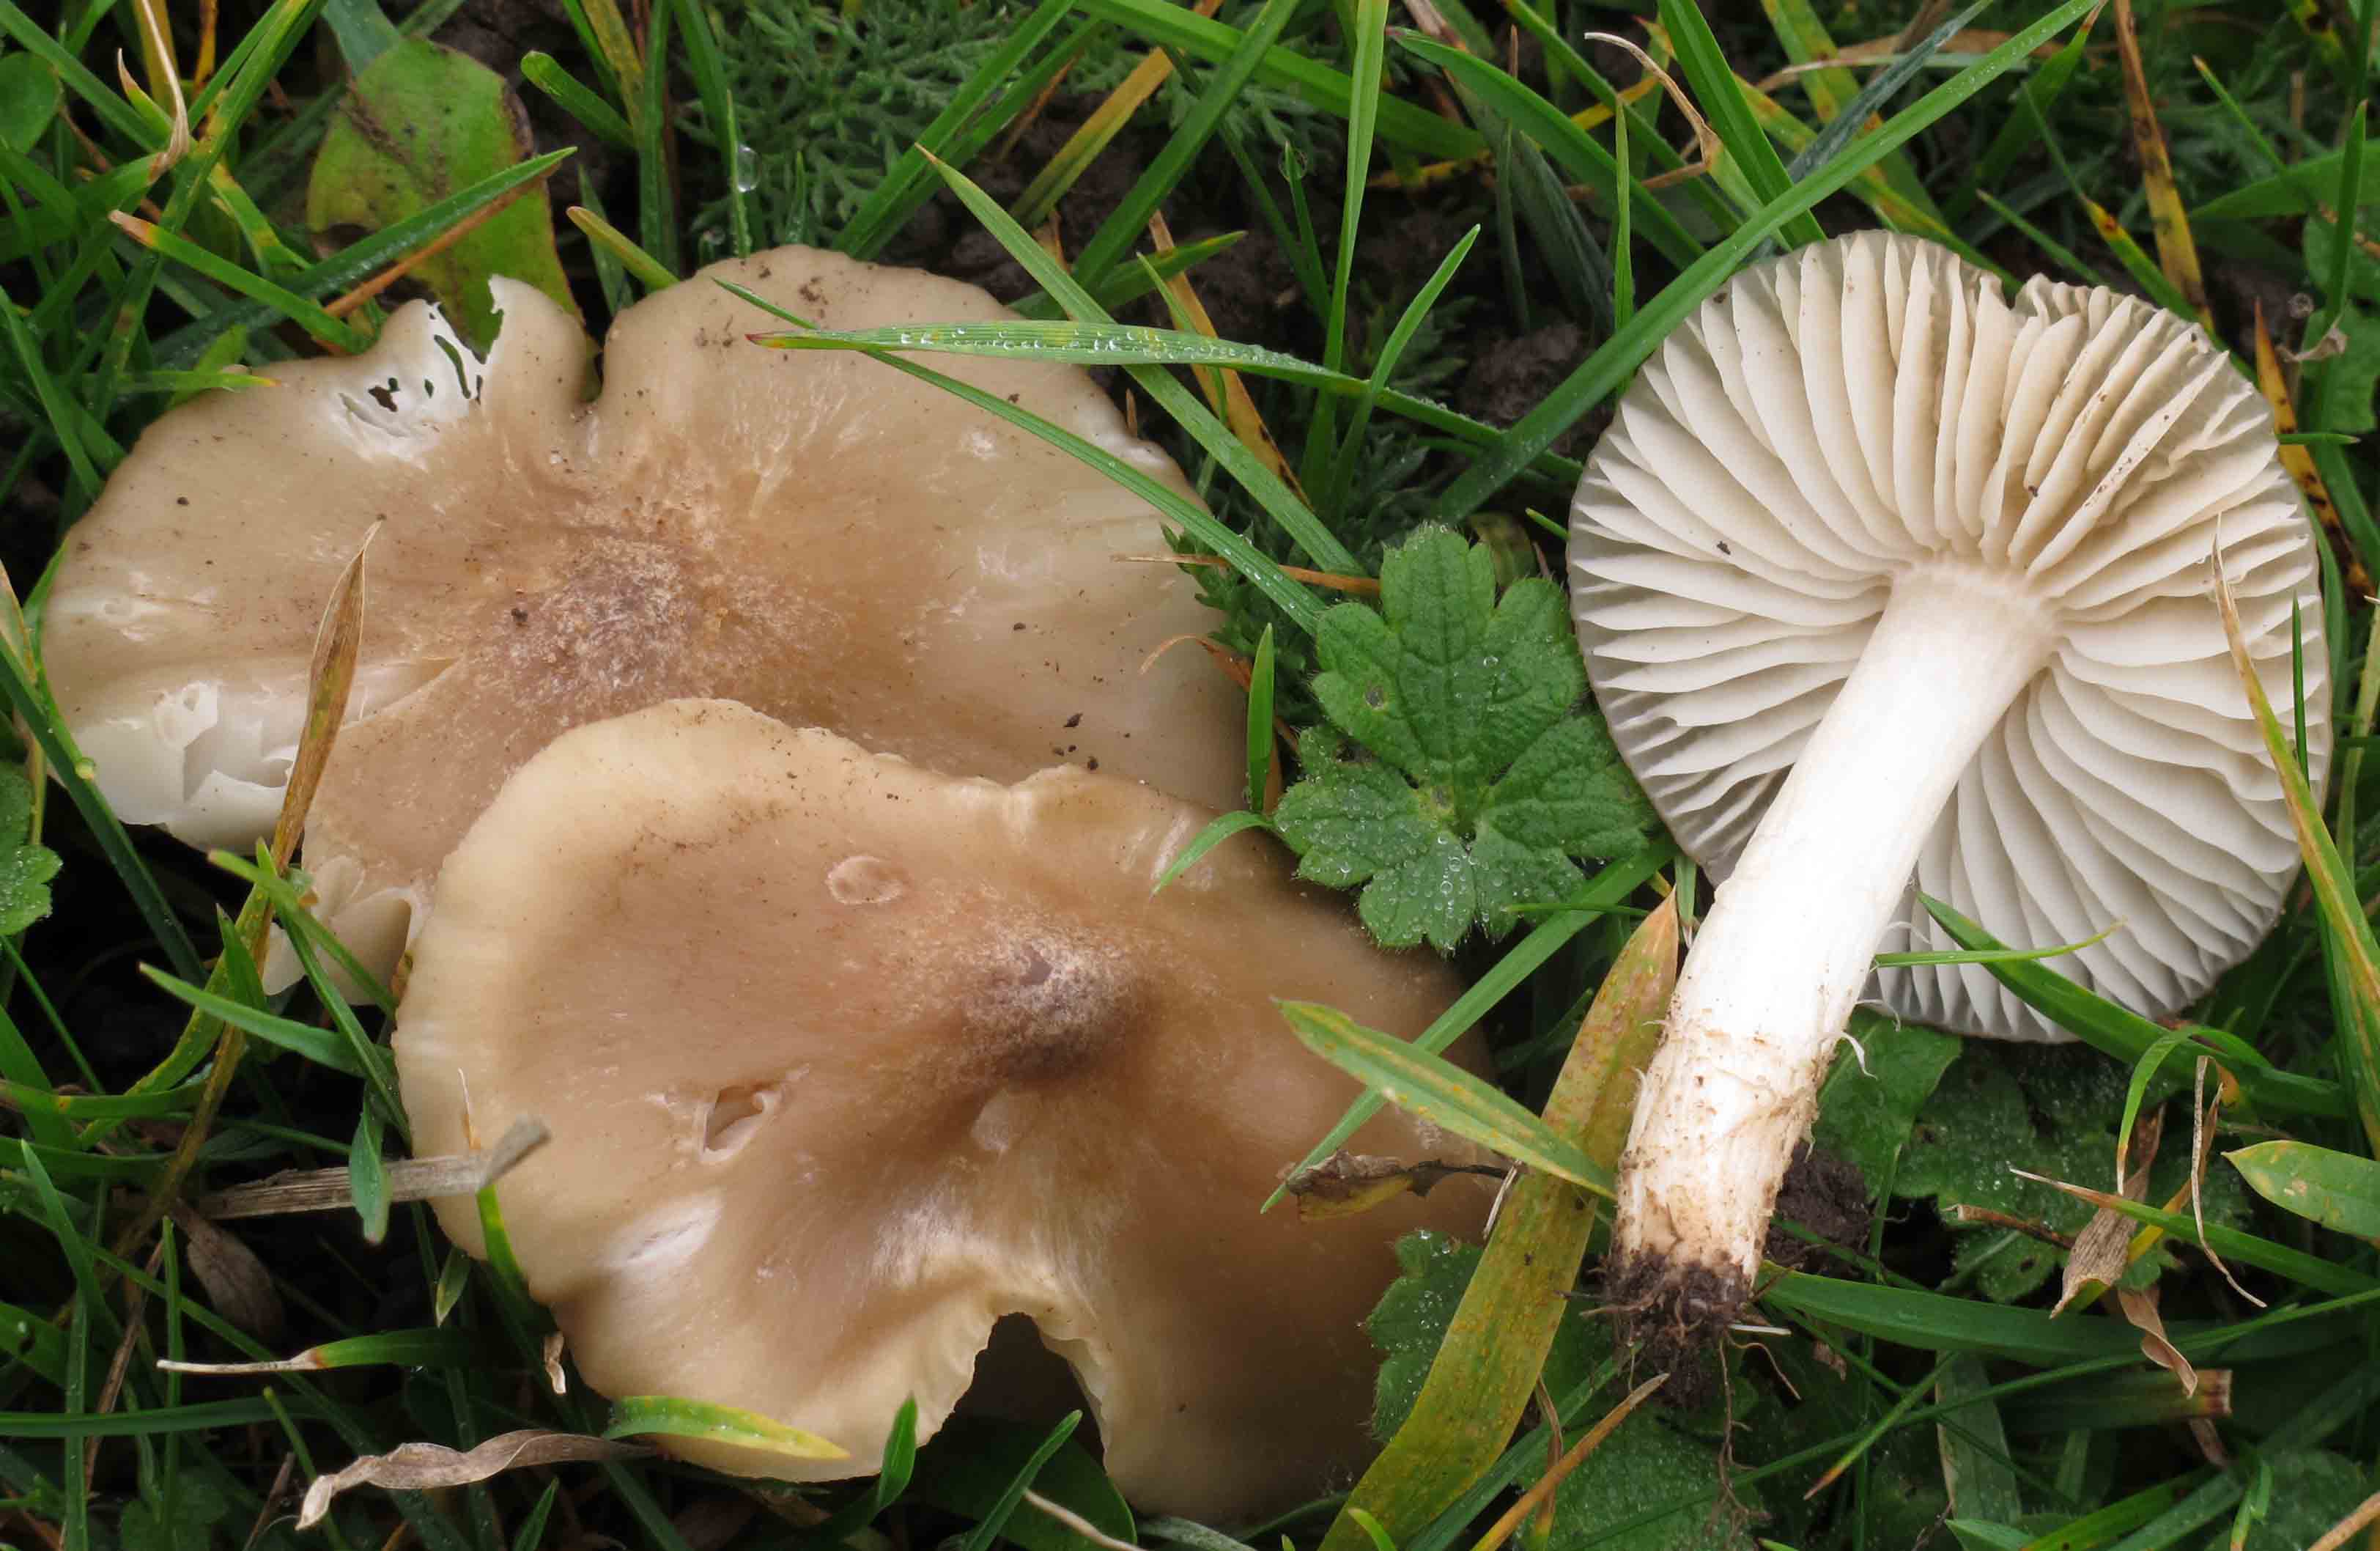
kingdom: Fungi
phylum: Basidiomycota
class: Agaricomycetes
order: Agaricales
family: Hygrophoraceae
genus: Cuphophyllus
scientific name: Cuphophyllus fornicatus
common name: gråbrun vokshat
